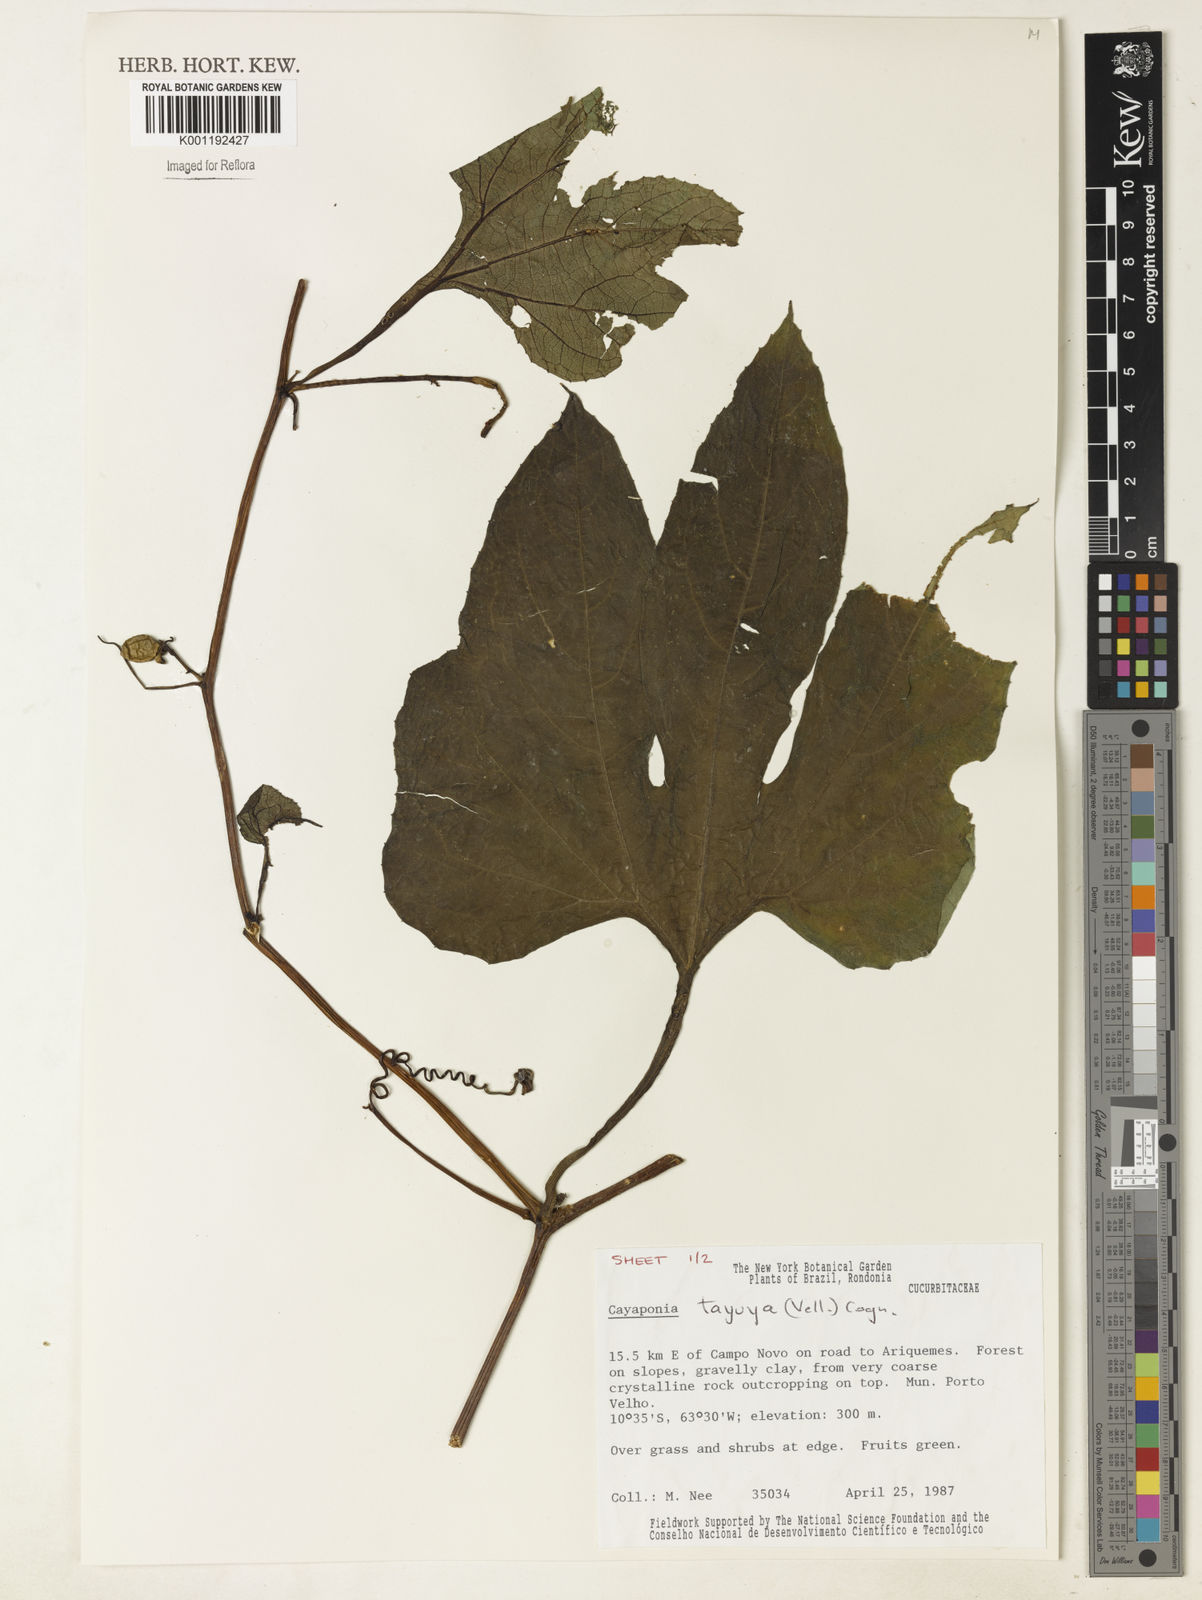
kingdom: Plantae
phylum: Tracheophyta
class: Magnoliopsida
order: Cucurbitales
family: Cucurbitaceae
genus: Cayaponia
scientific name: Cayaponia tayuya
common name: Tayuya
